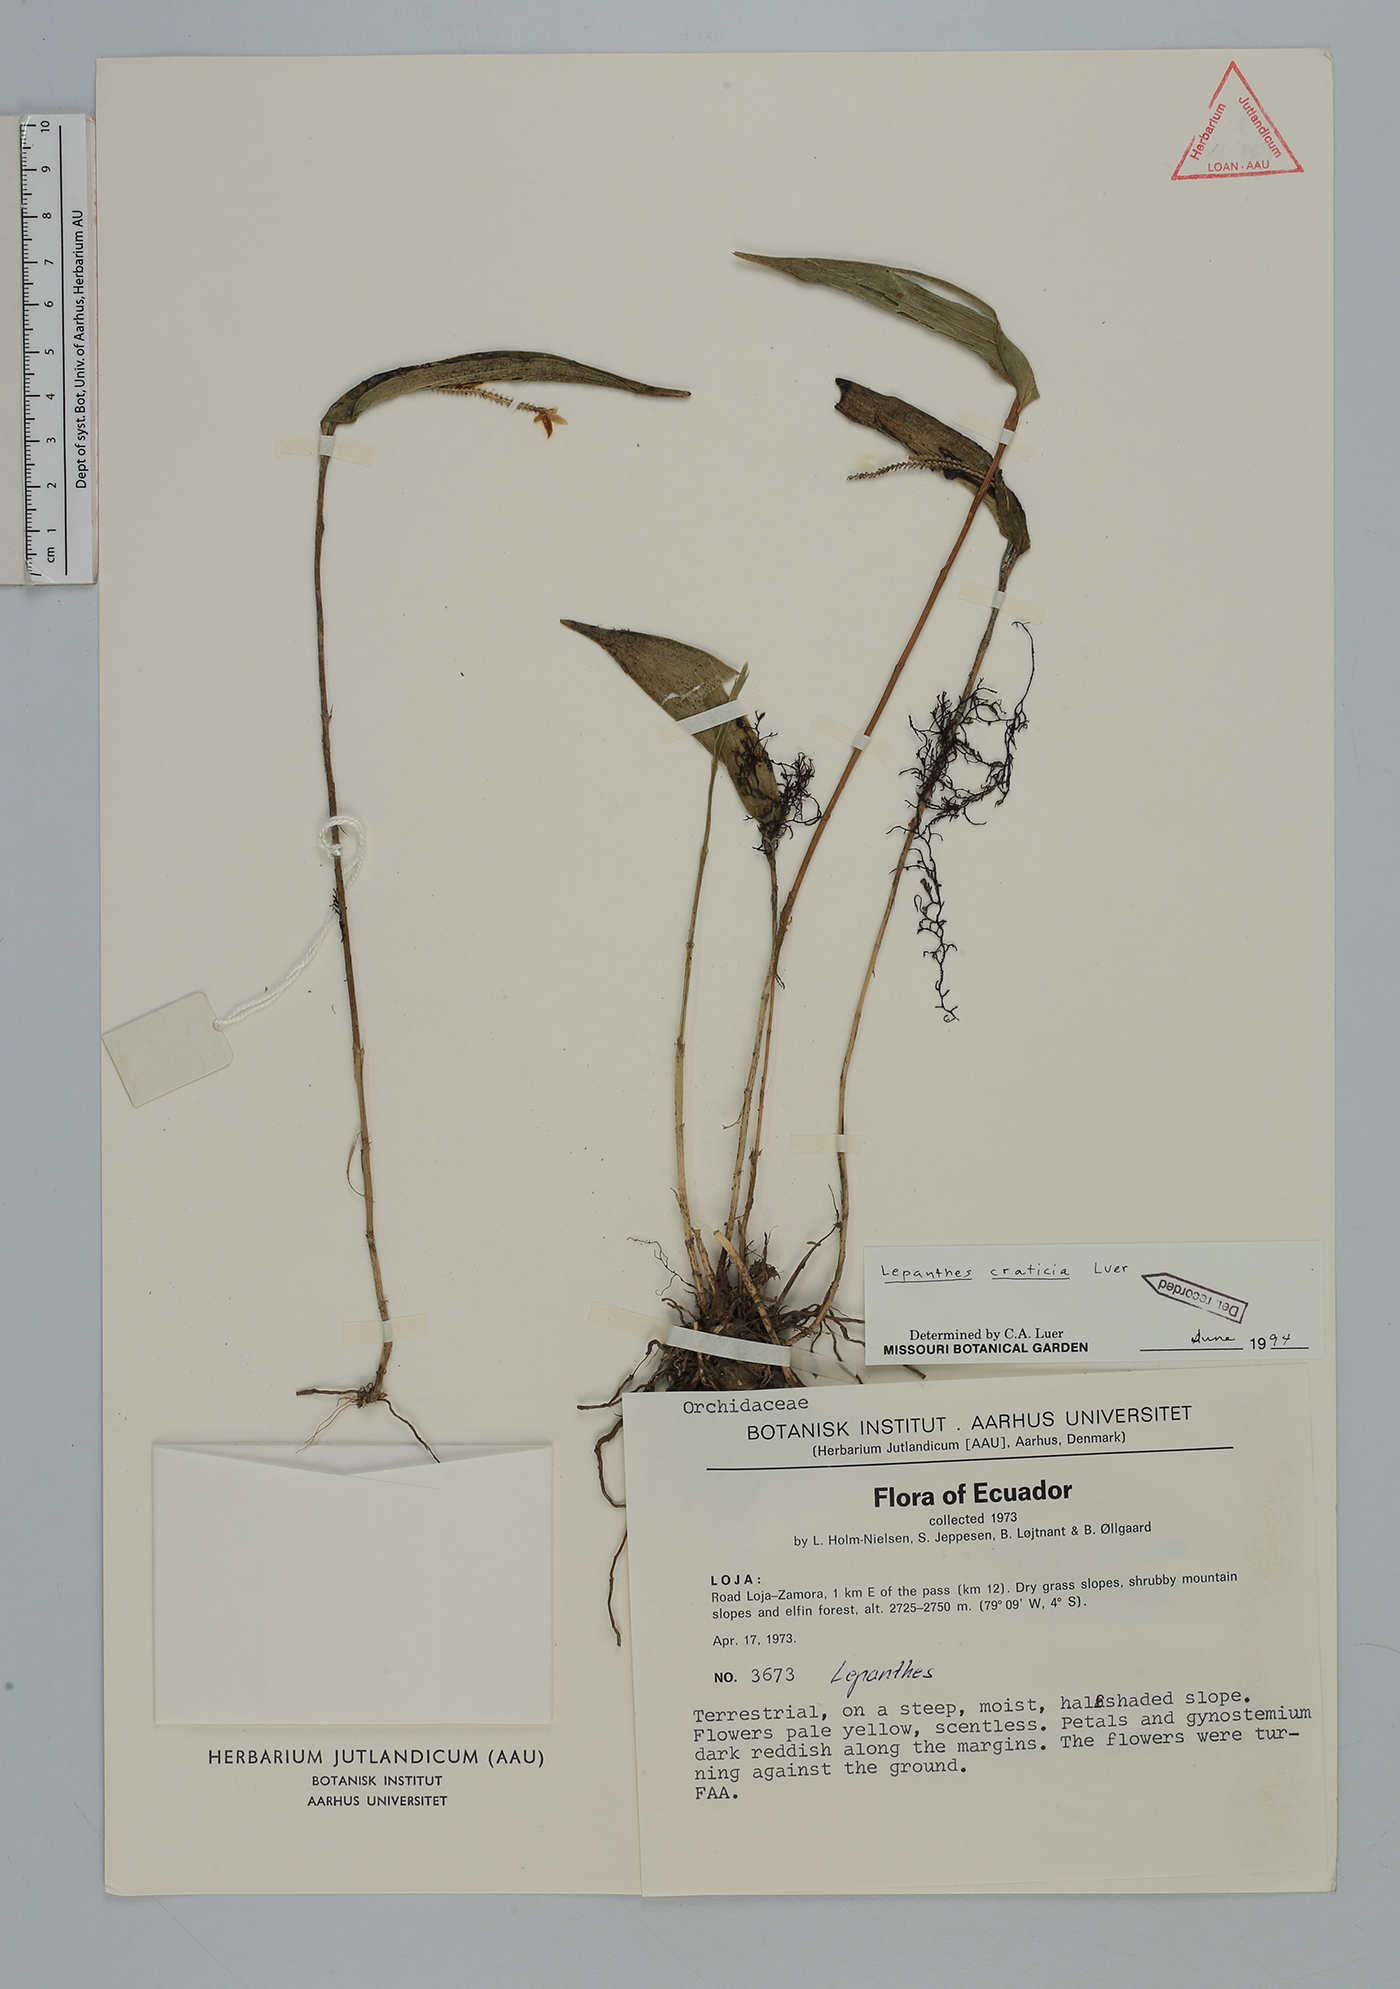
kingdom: Plantae
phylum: Tracheophyta
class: Liliopsida
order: Asparagales
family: Orchidaceae
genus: Lepanthes
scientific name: Lepanthes craticia
